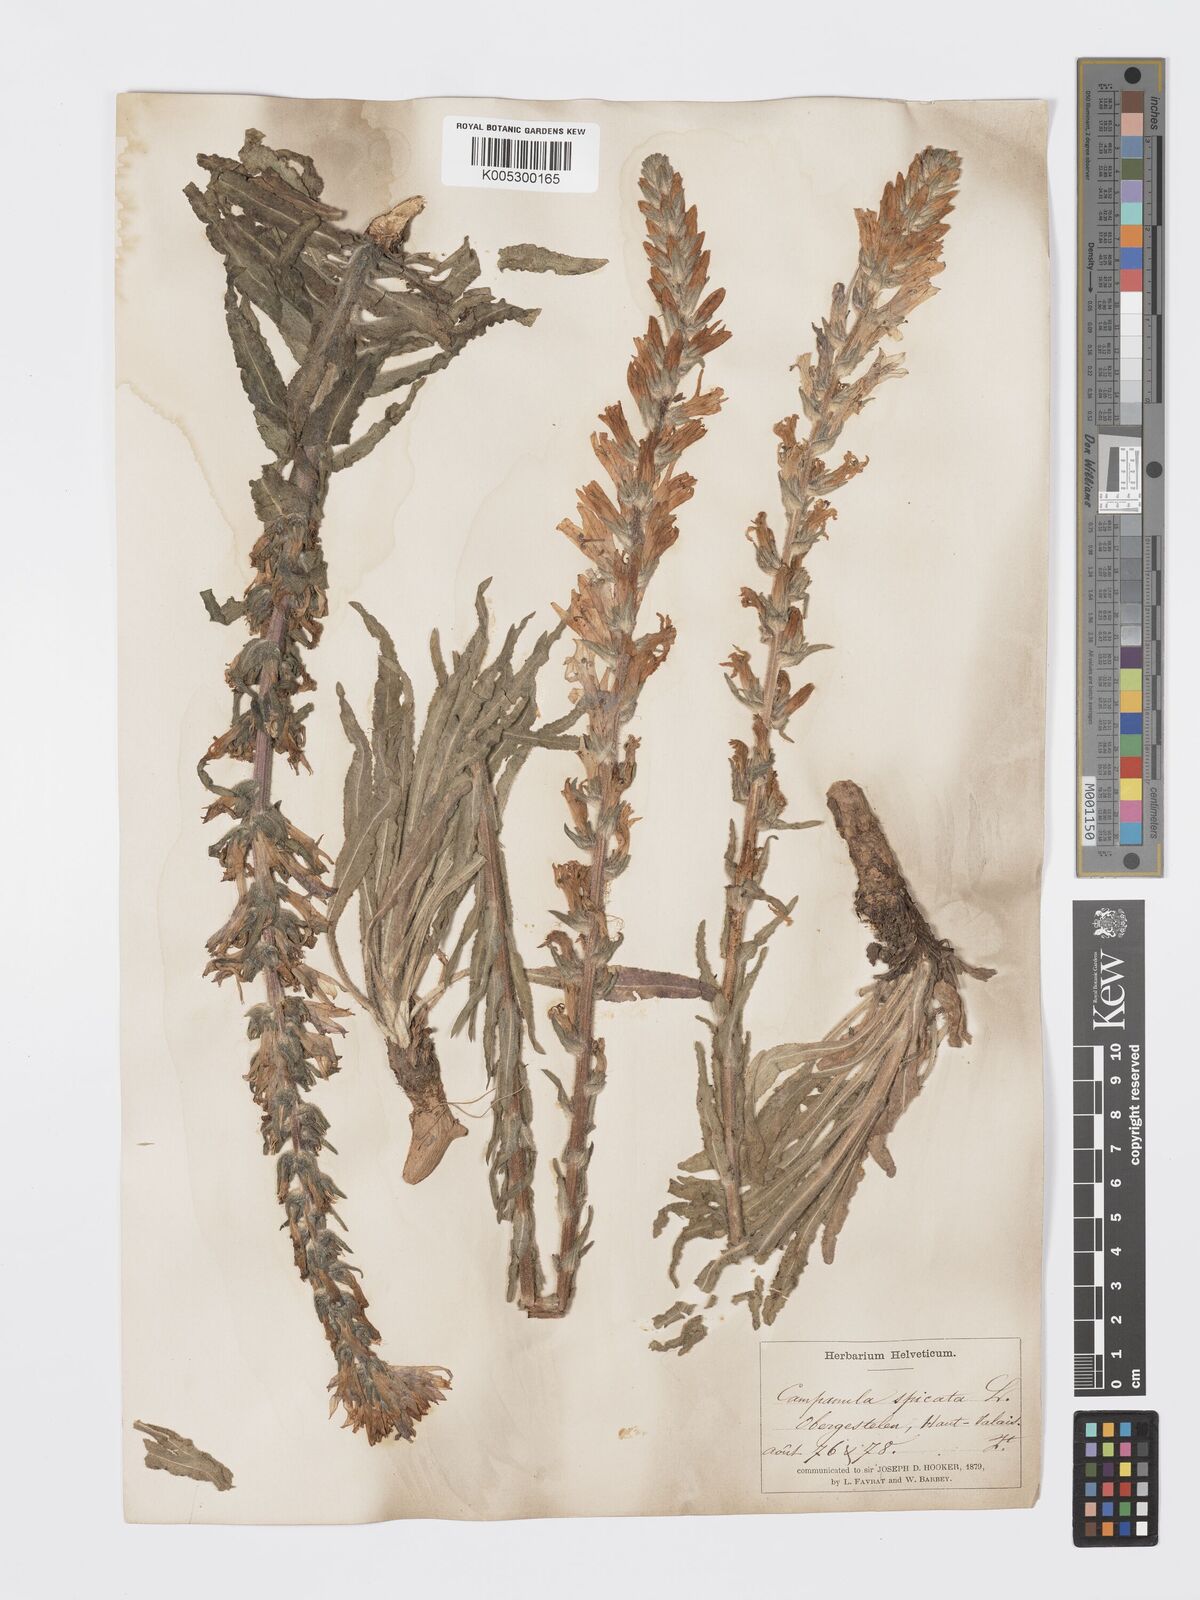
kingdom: Plantae
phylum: Tracheophyta
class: Magnoliopsida
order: Asterales
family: Campanulaceae
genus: Campanula
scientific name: Campanula spicata
